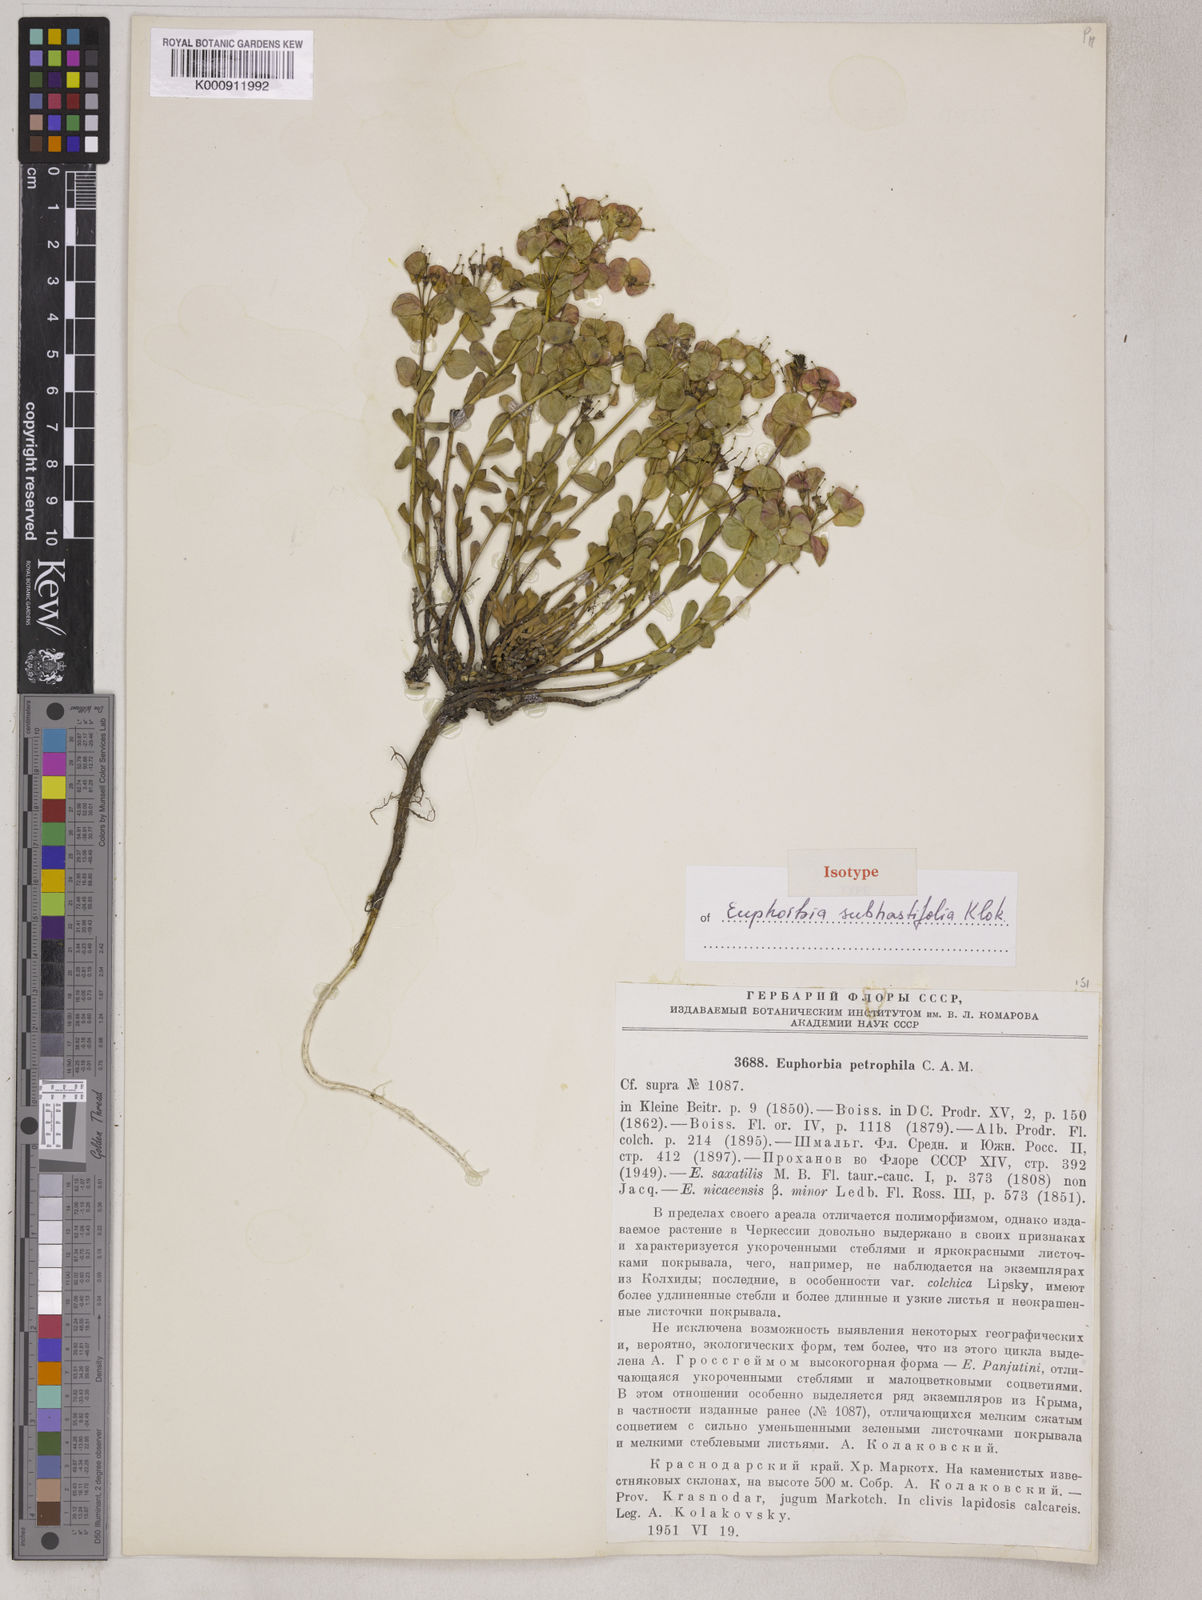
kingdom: Plantae
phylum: Tracheophyta
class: Magnoliopsida
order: Malpighiales
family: Euphorbiaceae
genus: Euphorbia
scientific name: Euphorbia petrophila
